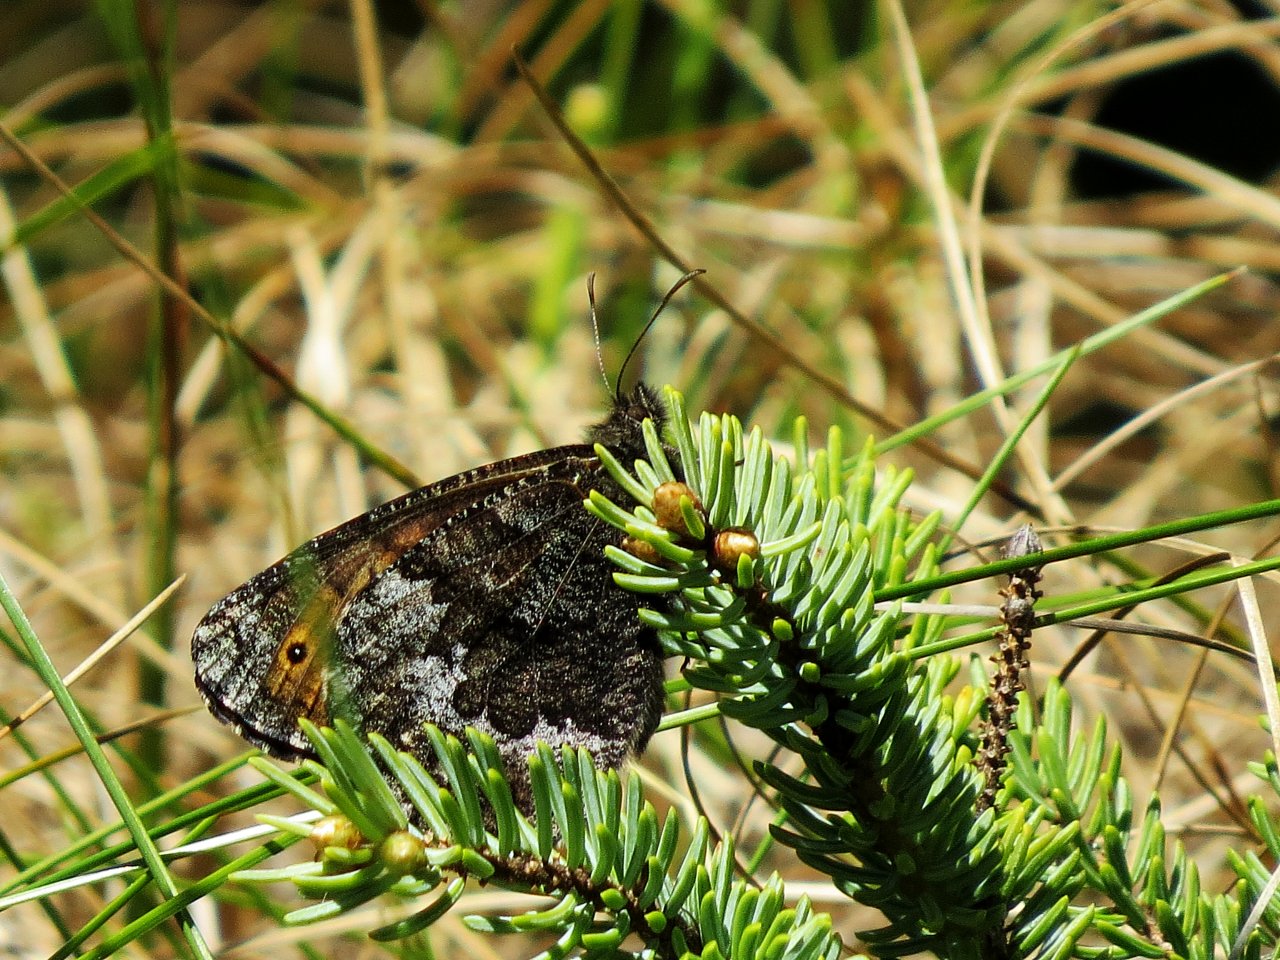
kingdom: Animalia
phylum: Arthropoda
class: Insecta
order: Lepidoptera
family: Nymphalidae
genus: Oeneis
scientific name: Oeneis jutta
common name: Jutta Arctic
